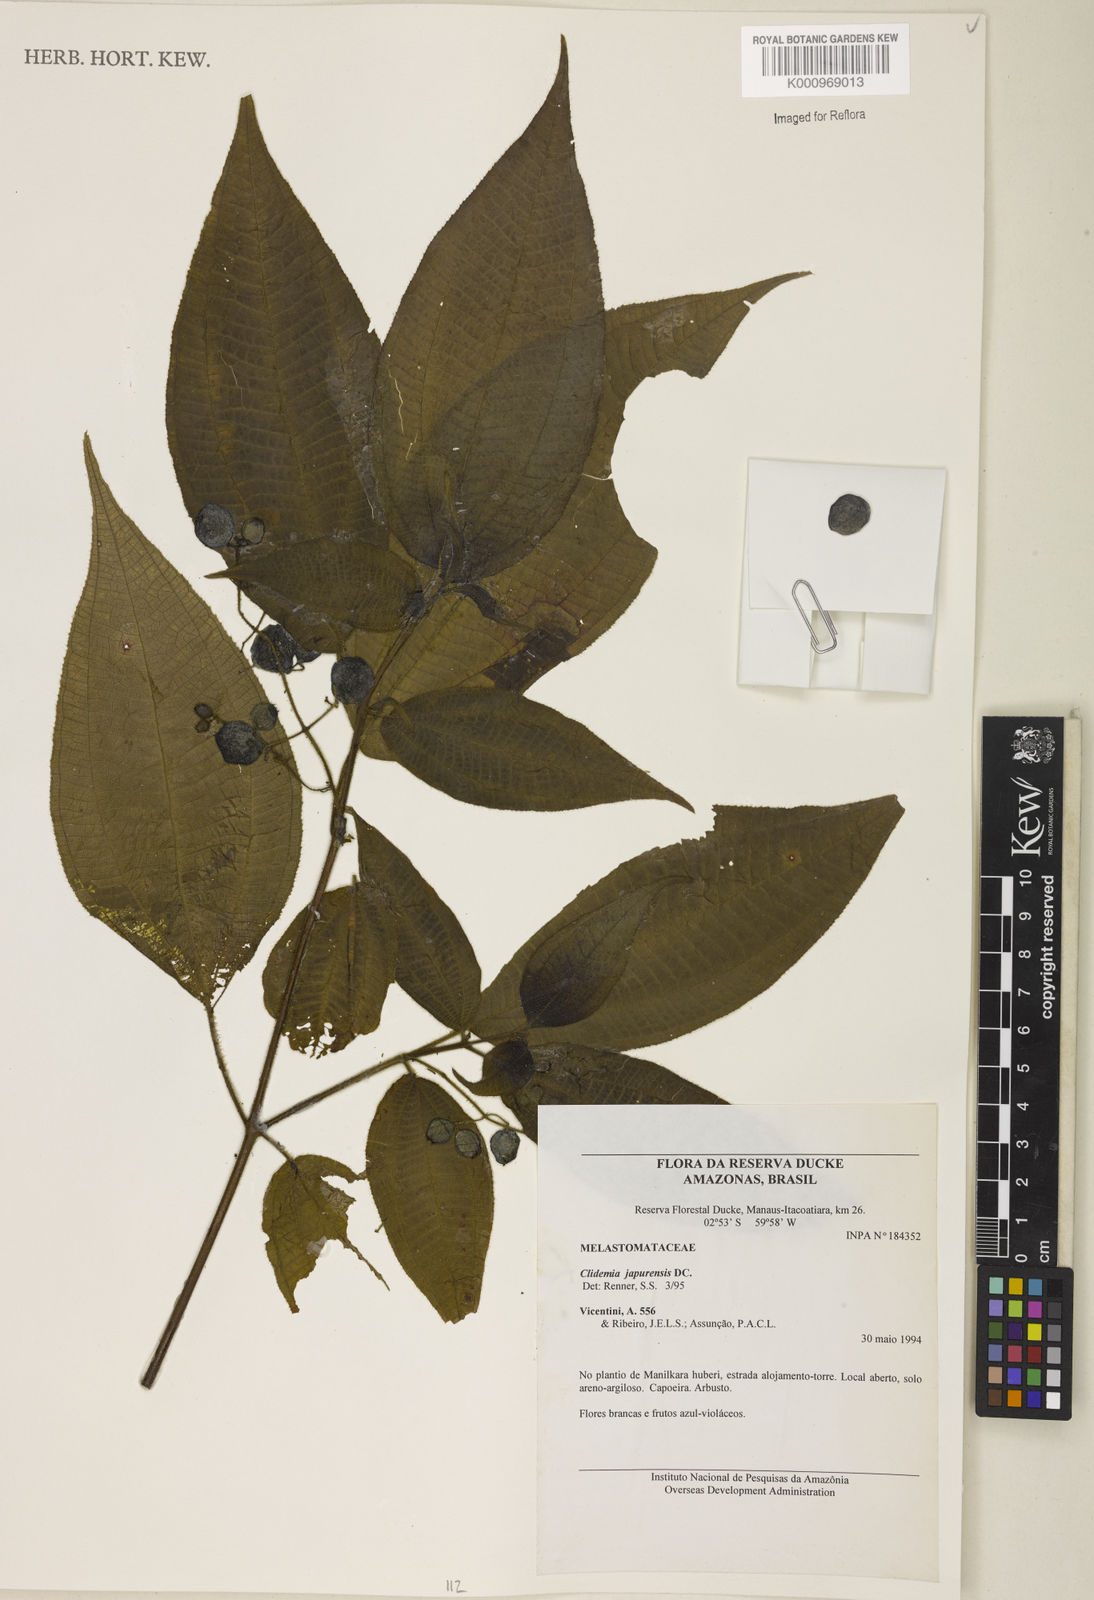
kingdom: Plantae
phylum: Tracheophyta
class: Magnoliopsida
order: Myrtales
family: Melastomataceae
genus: Miconia
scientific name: Miconia heteroclita
